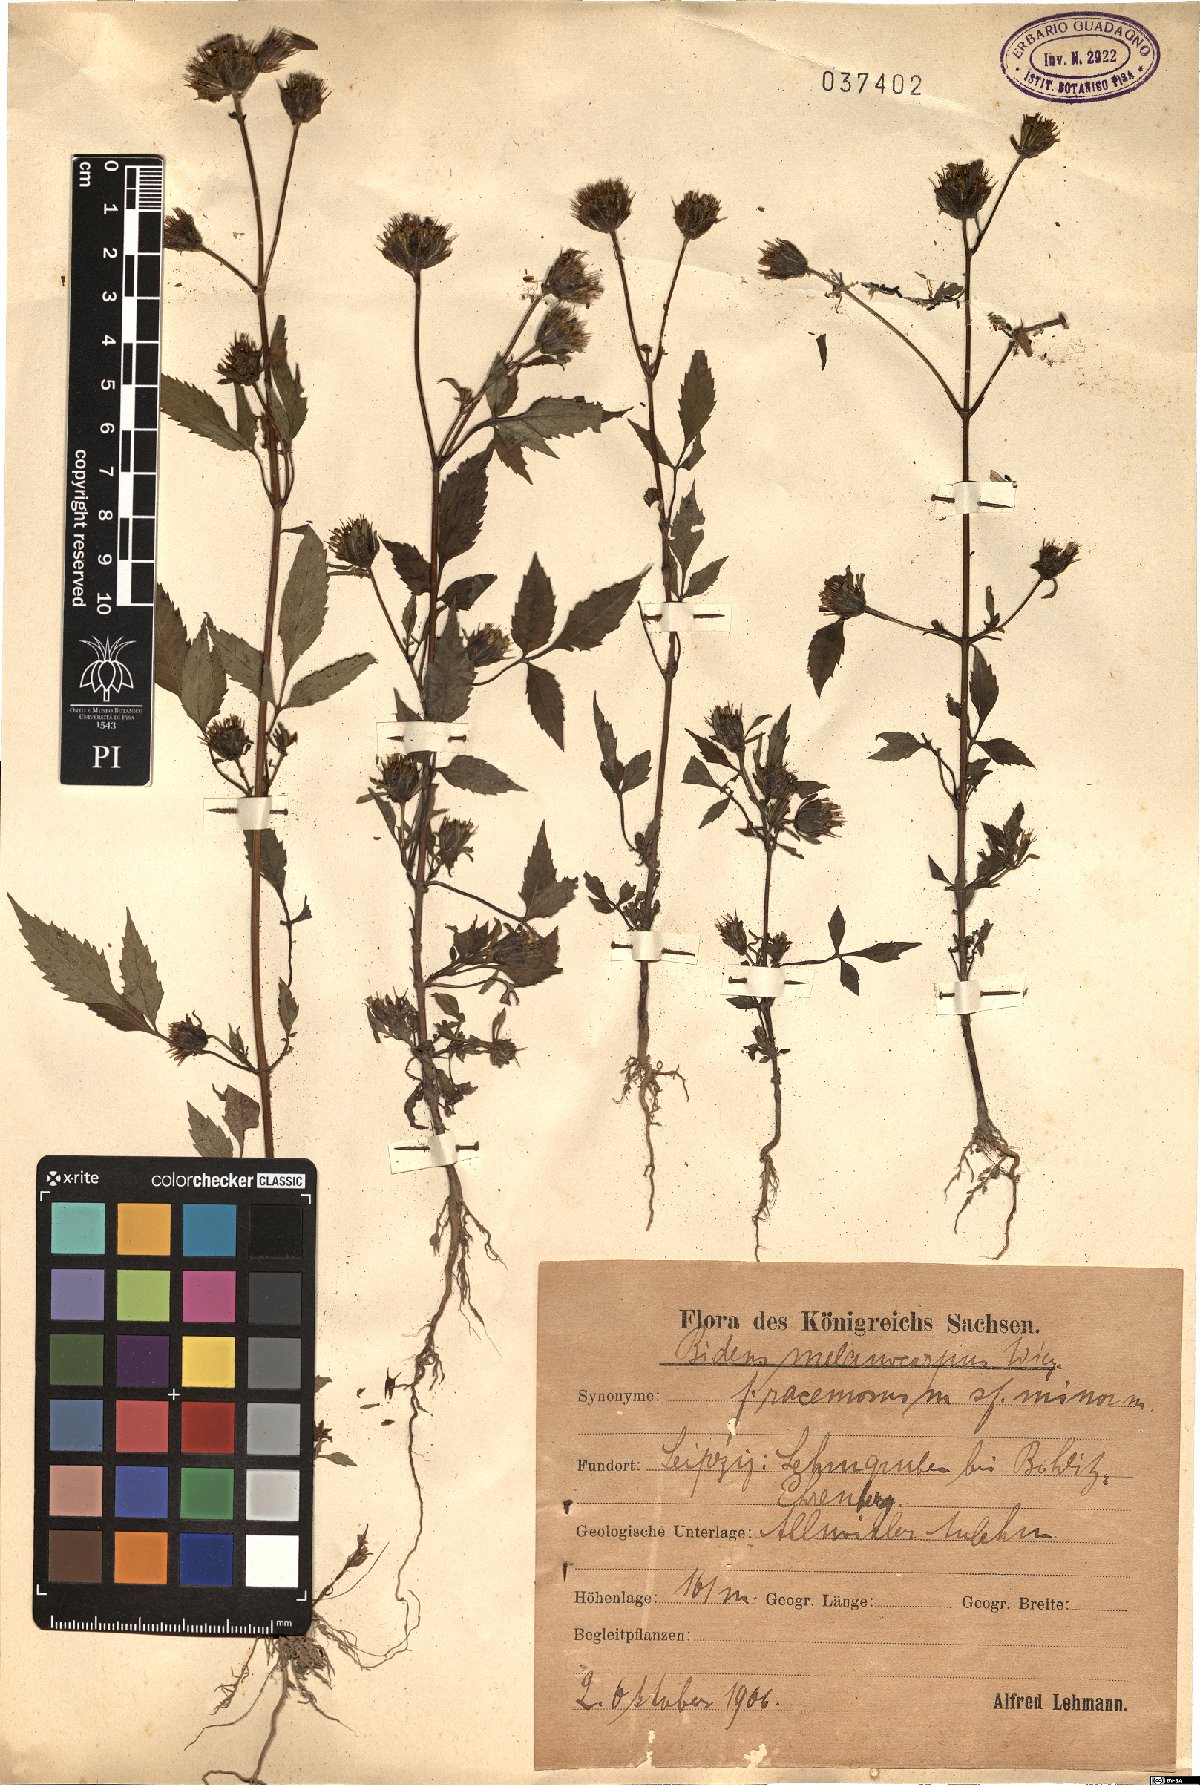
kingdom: Plantae
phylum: Tracheophyta
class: Magnoliopsida
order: Asterales
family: Asteraceae
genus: Bidens
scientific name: Bidens frondosa
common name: Beggarticks
